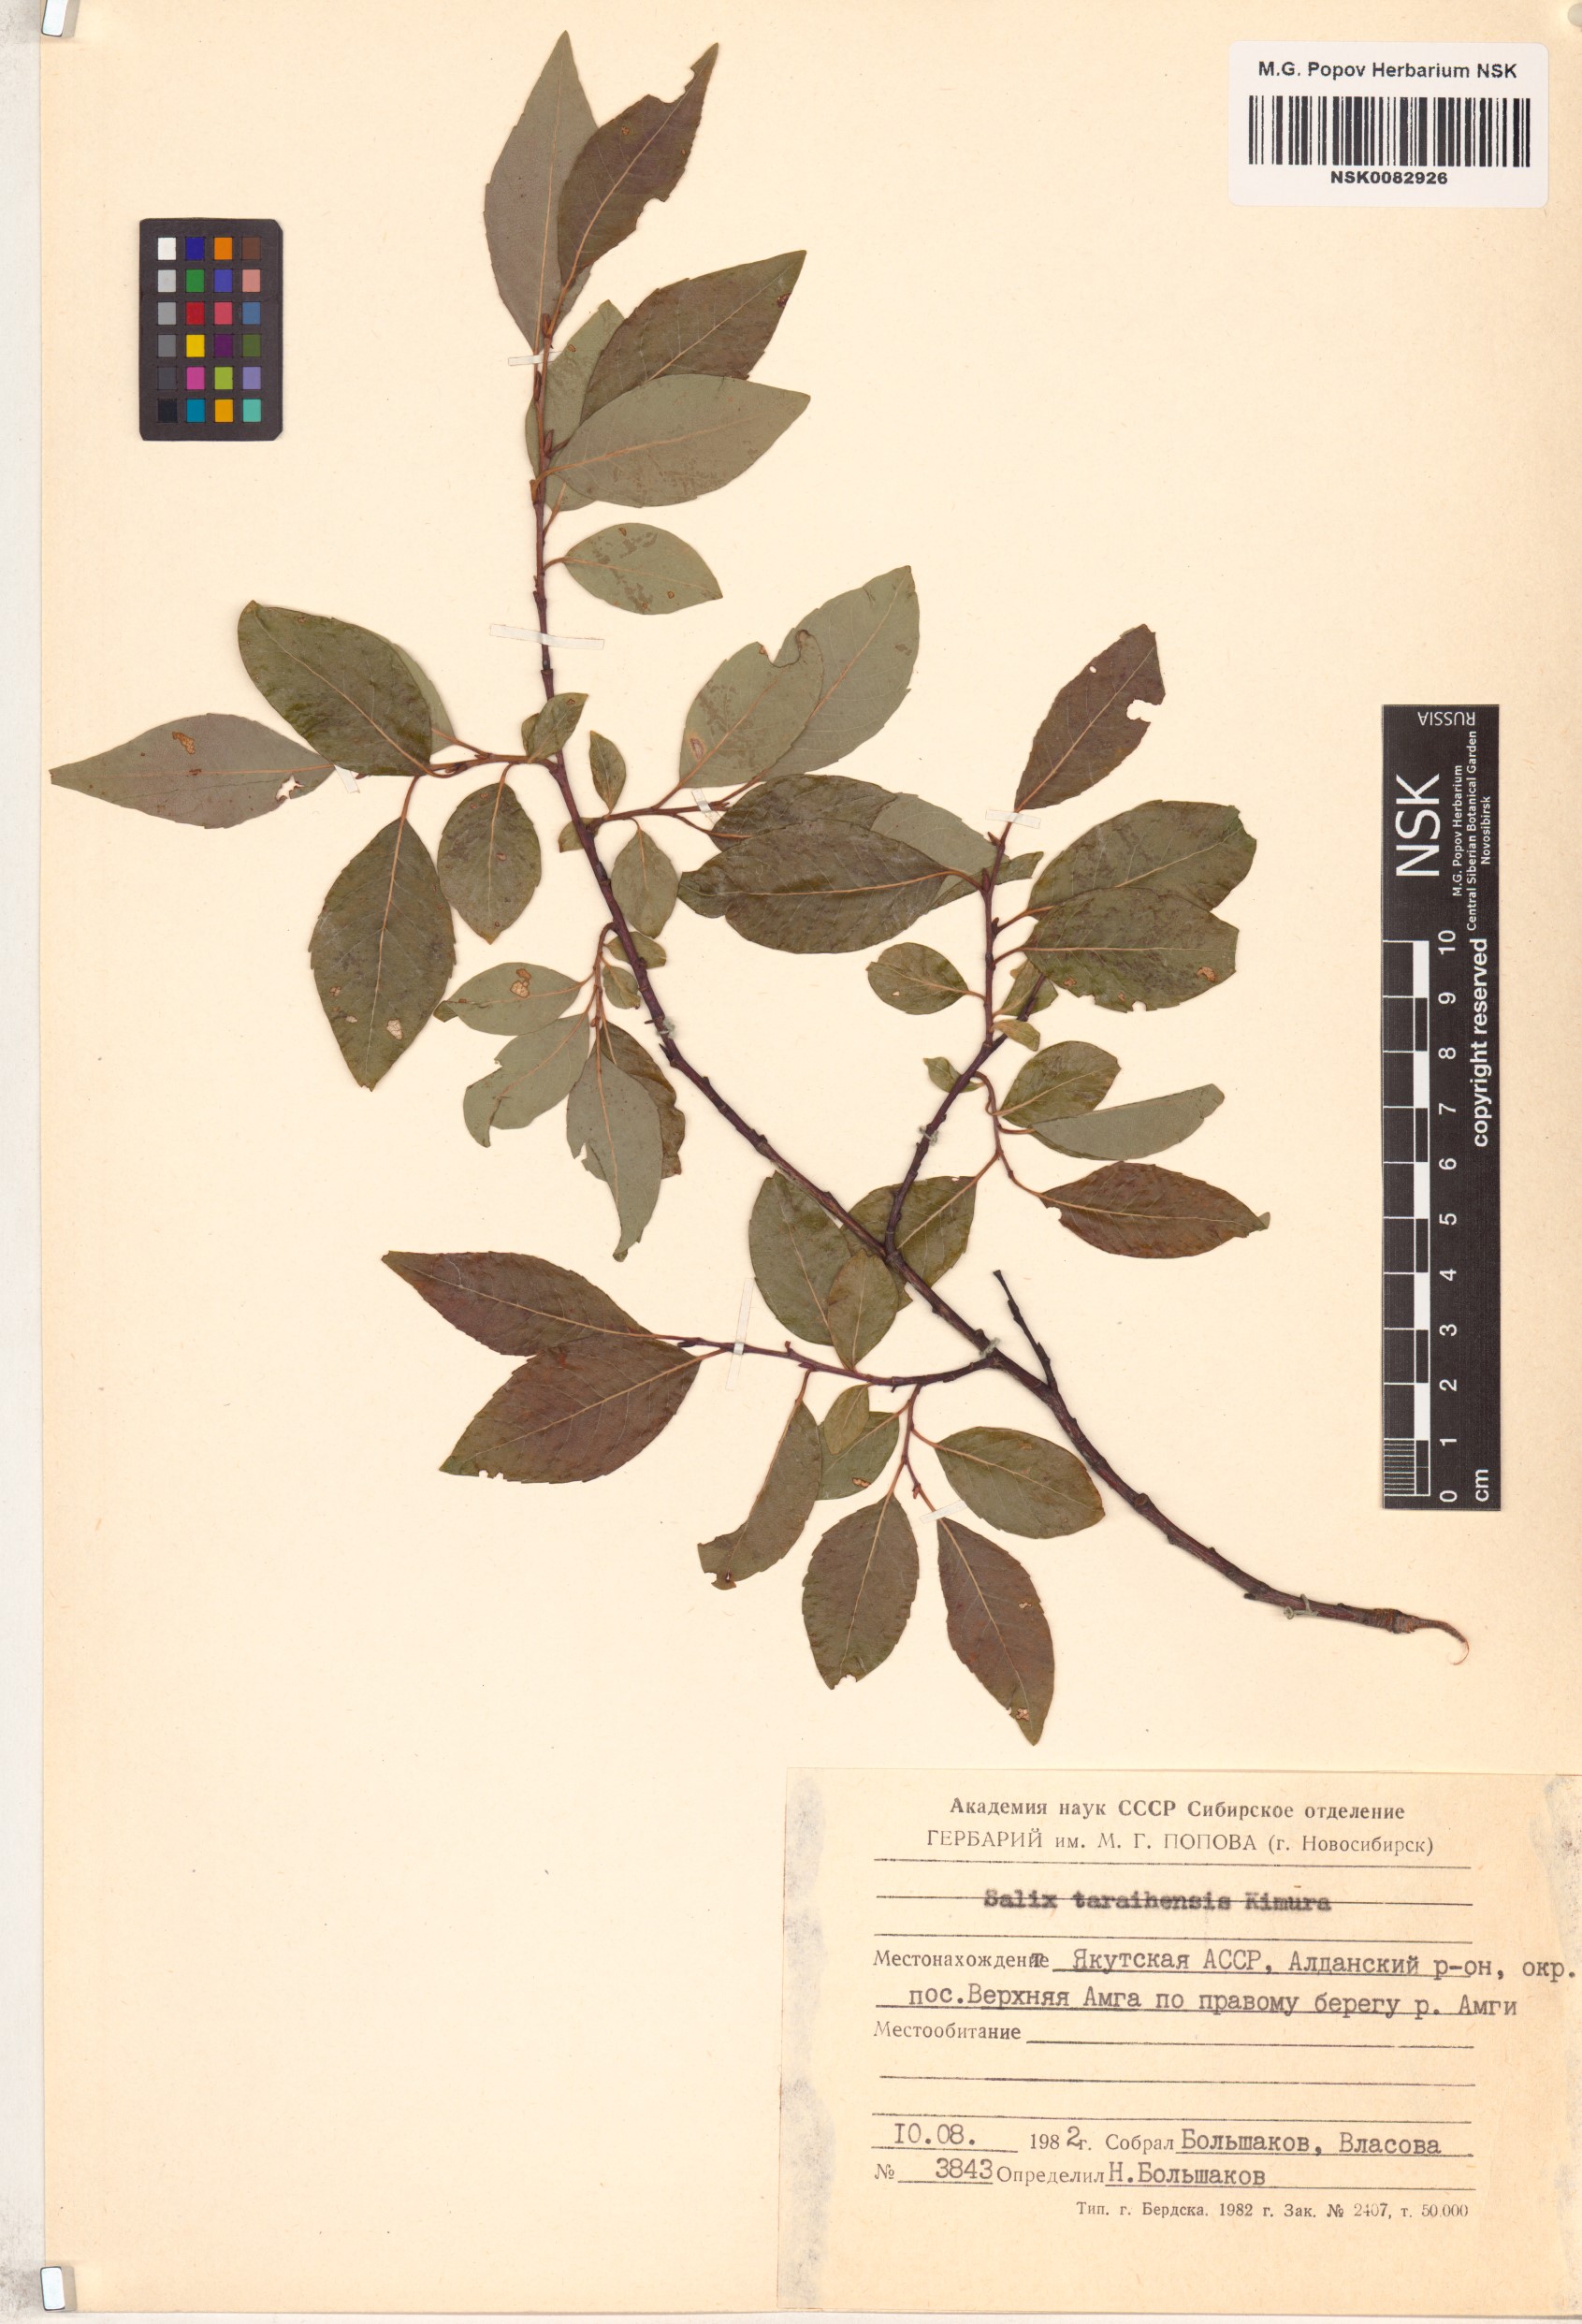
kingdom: Plantae
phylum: Tracheophyta
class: Magnoliopsida
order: Malpighiales
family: Salicaceae
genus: Salix
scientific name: Salix taraikensis
